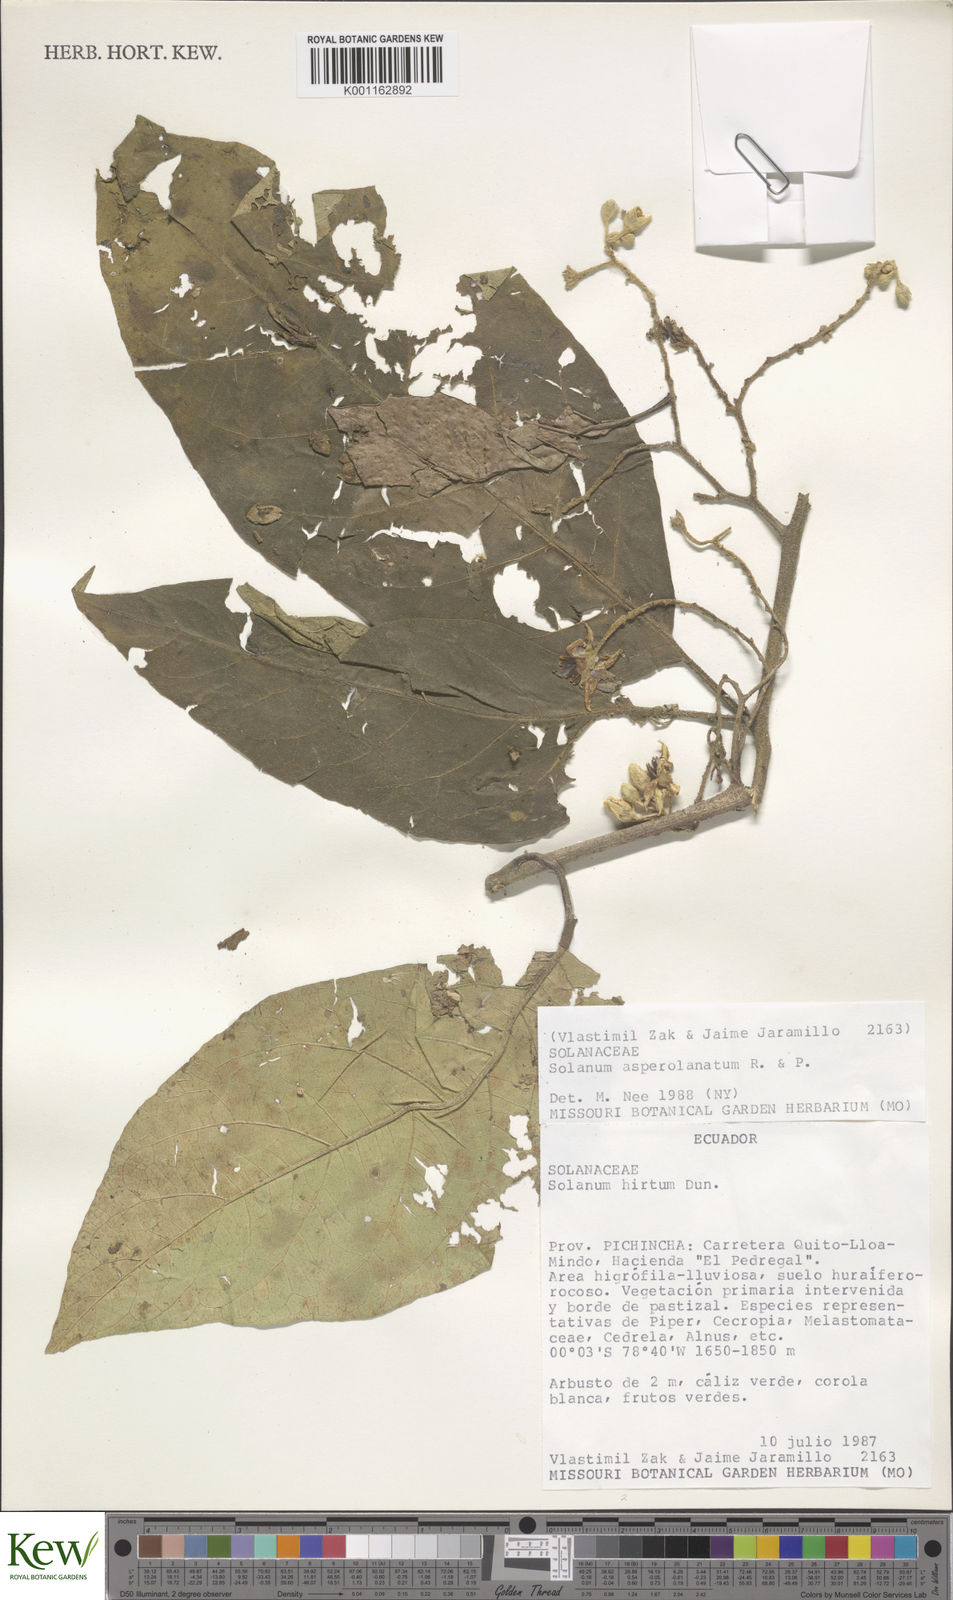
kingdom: Plantae
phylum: Tracheophyta
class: Magnoliopsida
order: Solanales
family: Solanaceae
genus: Solanum
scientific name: Solanum asperolanatum
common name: Devil's-fig
